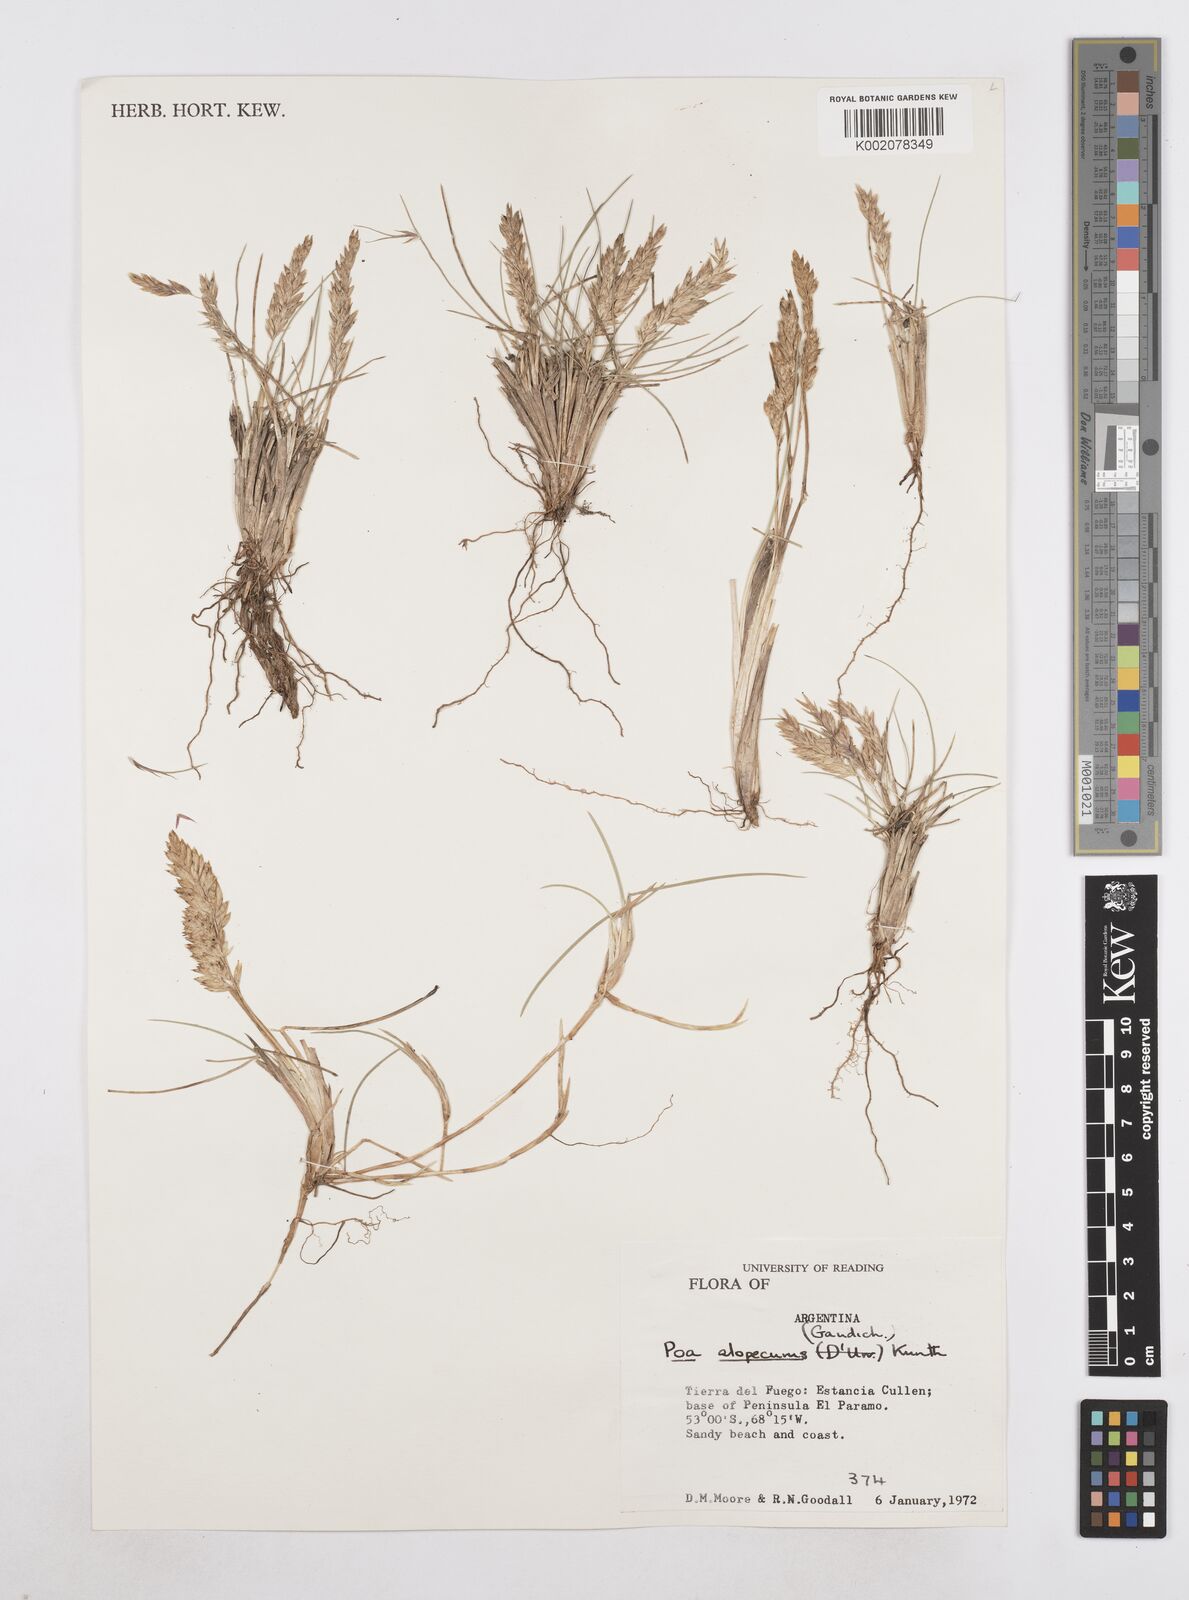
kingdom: Plantae
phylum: Tracheophyta
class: Liliopsida
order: Poales
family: Poaceae
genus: Poa
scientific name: Poa alopecurus
